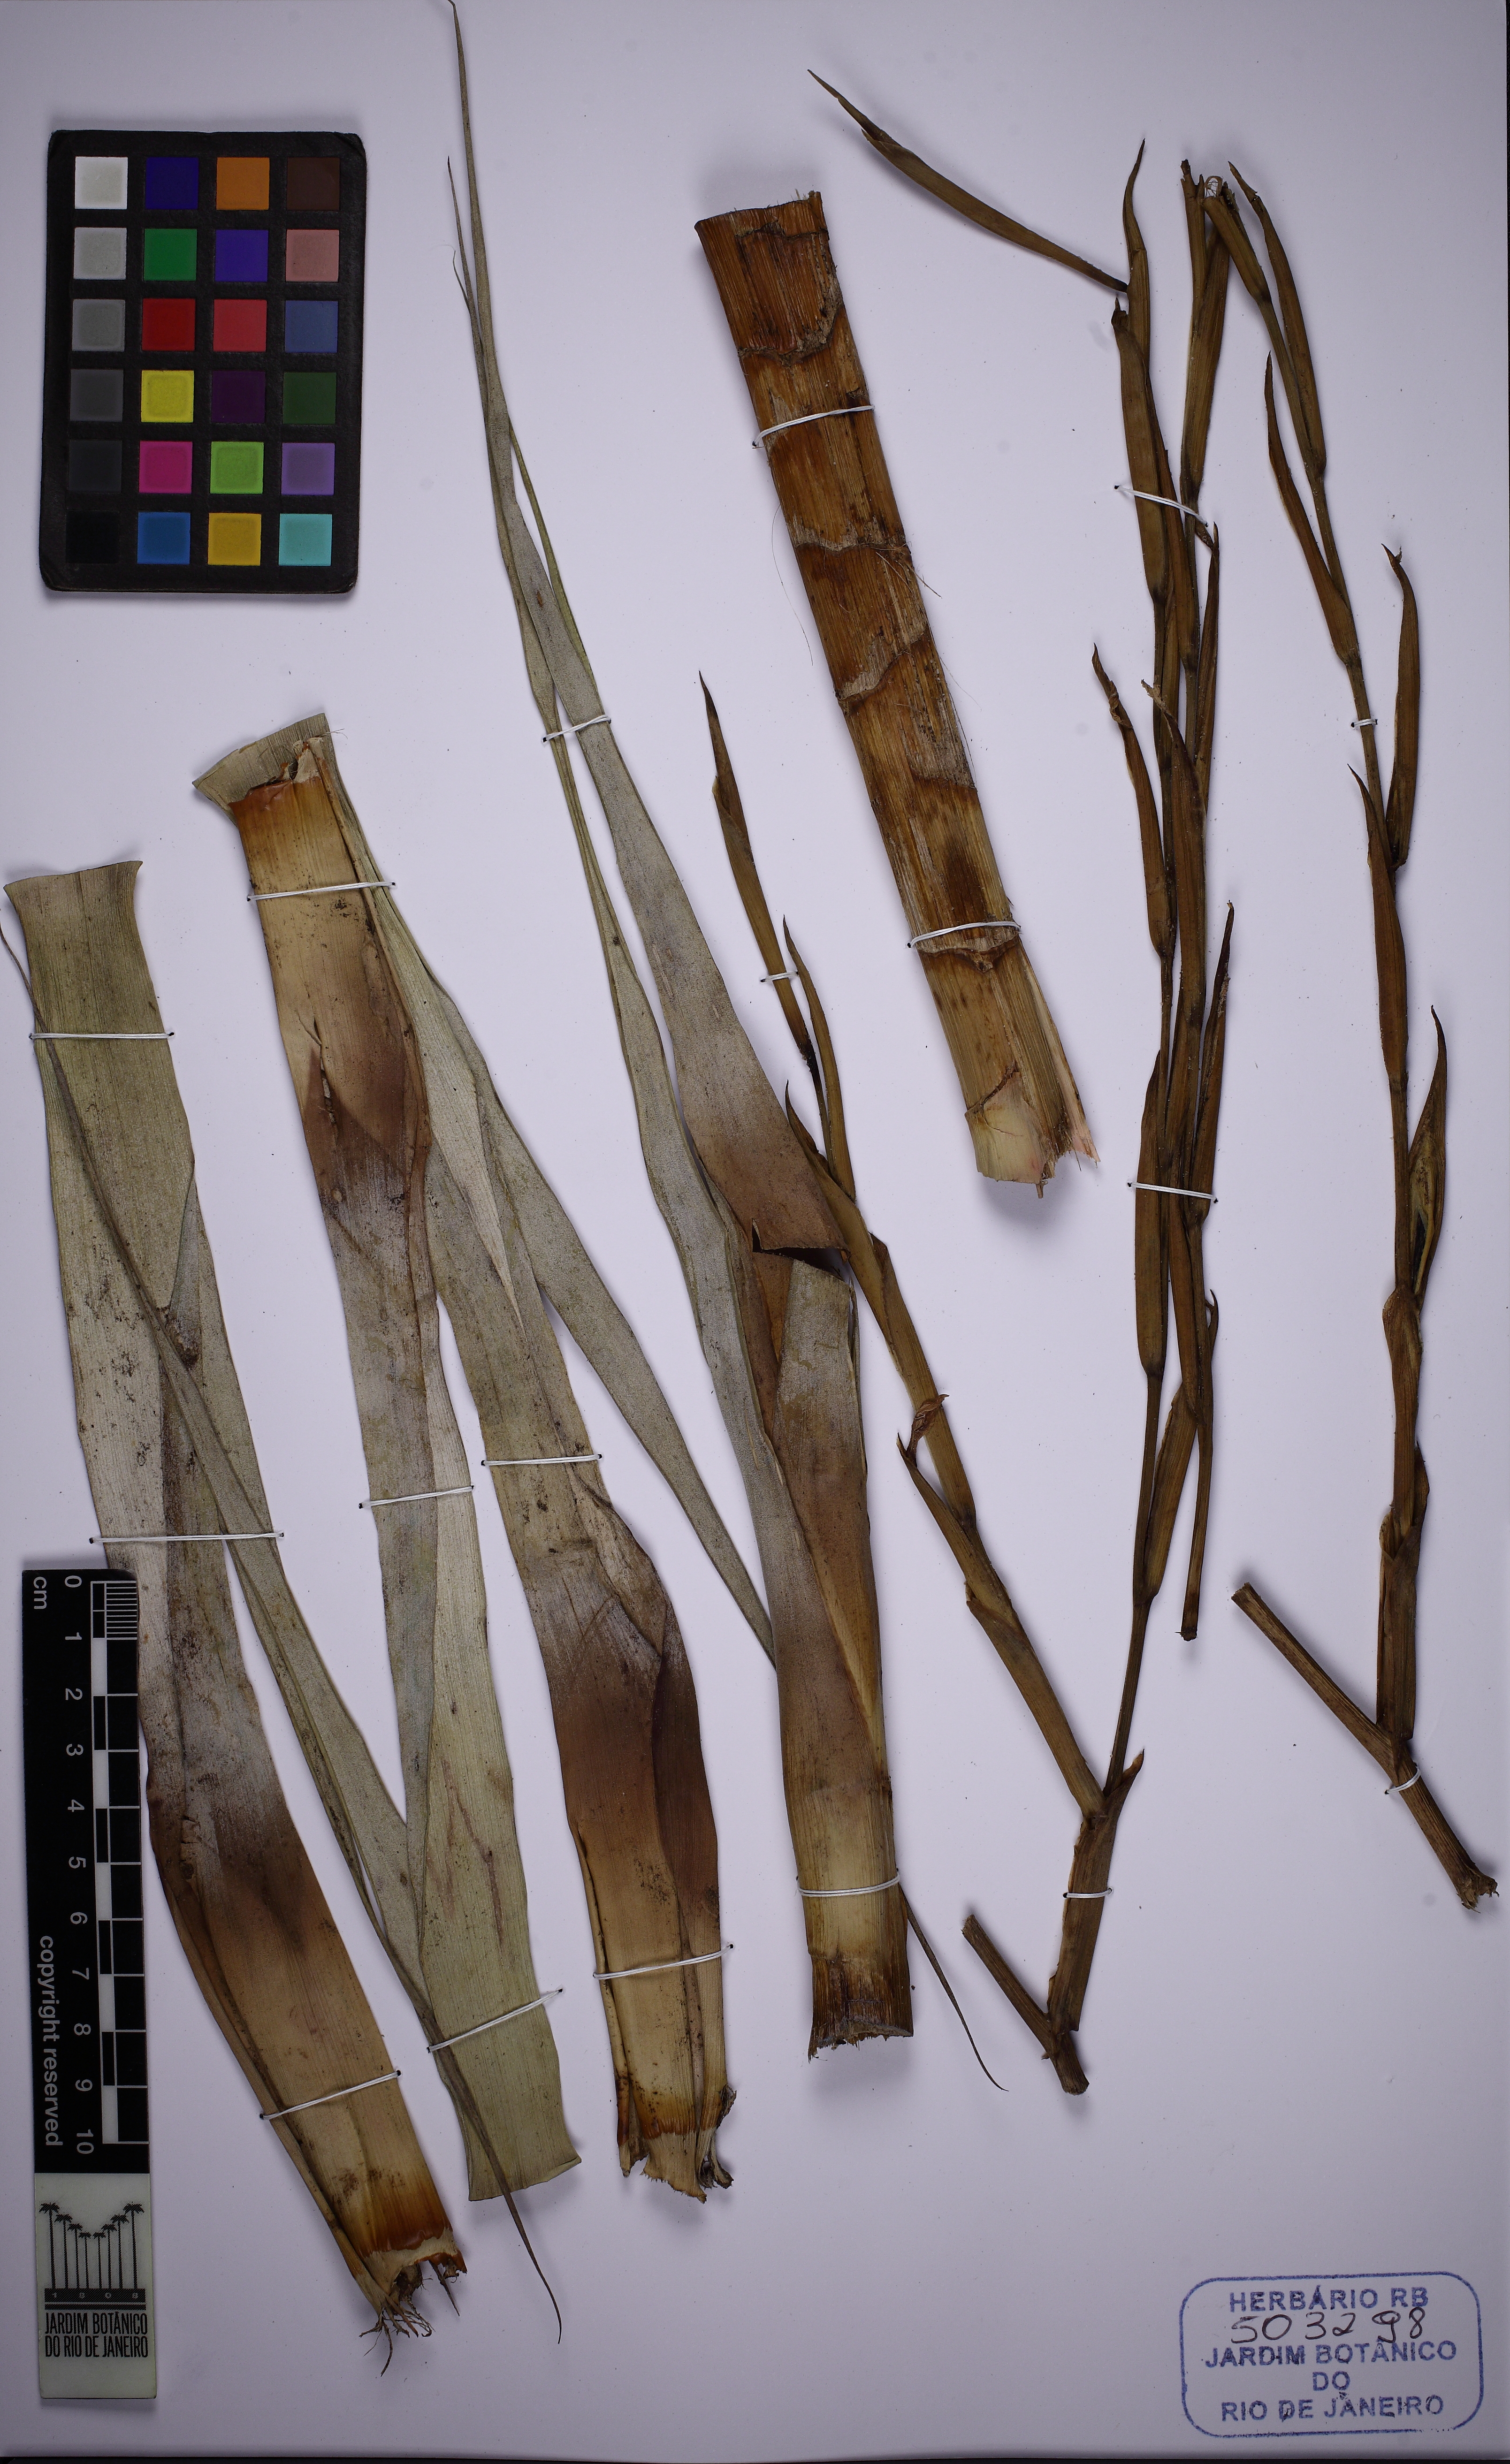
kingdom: Plantae
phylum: Tracheophyta
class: Liliopsida
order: Poales
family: Bromeliaceae
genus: Tillandsia
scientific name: Tillandsia adpressiflora
